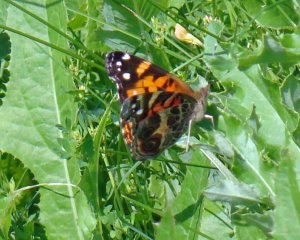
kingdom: Animalia
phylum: Arthropoda
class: Insecta
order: Lepidoptera
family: Nymphalidae
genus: Vanessa
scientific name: Vanessa virginiensis
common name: American Lady
